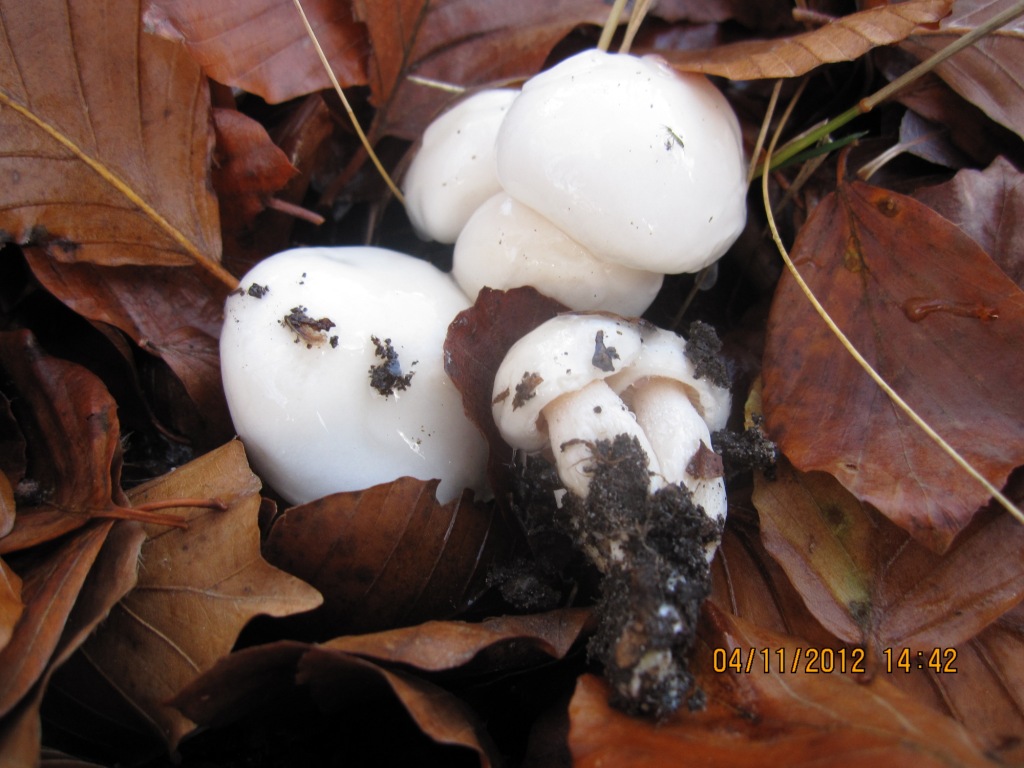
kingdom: Fungi
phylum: Basidiomycota
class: Agaricomycetes
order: Agaricales
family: Hygrophoraceae
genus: Hygrophorus
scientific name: Hygrophorus eburneus
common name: elfenbens-sneglehat
